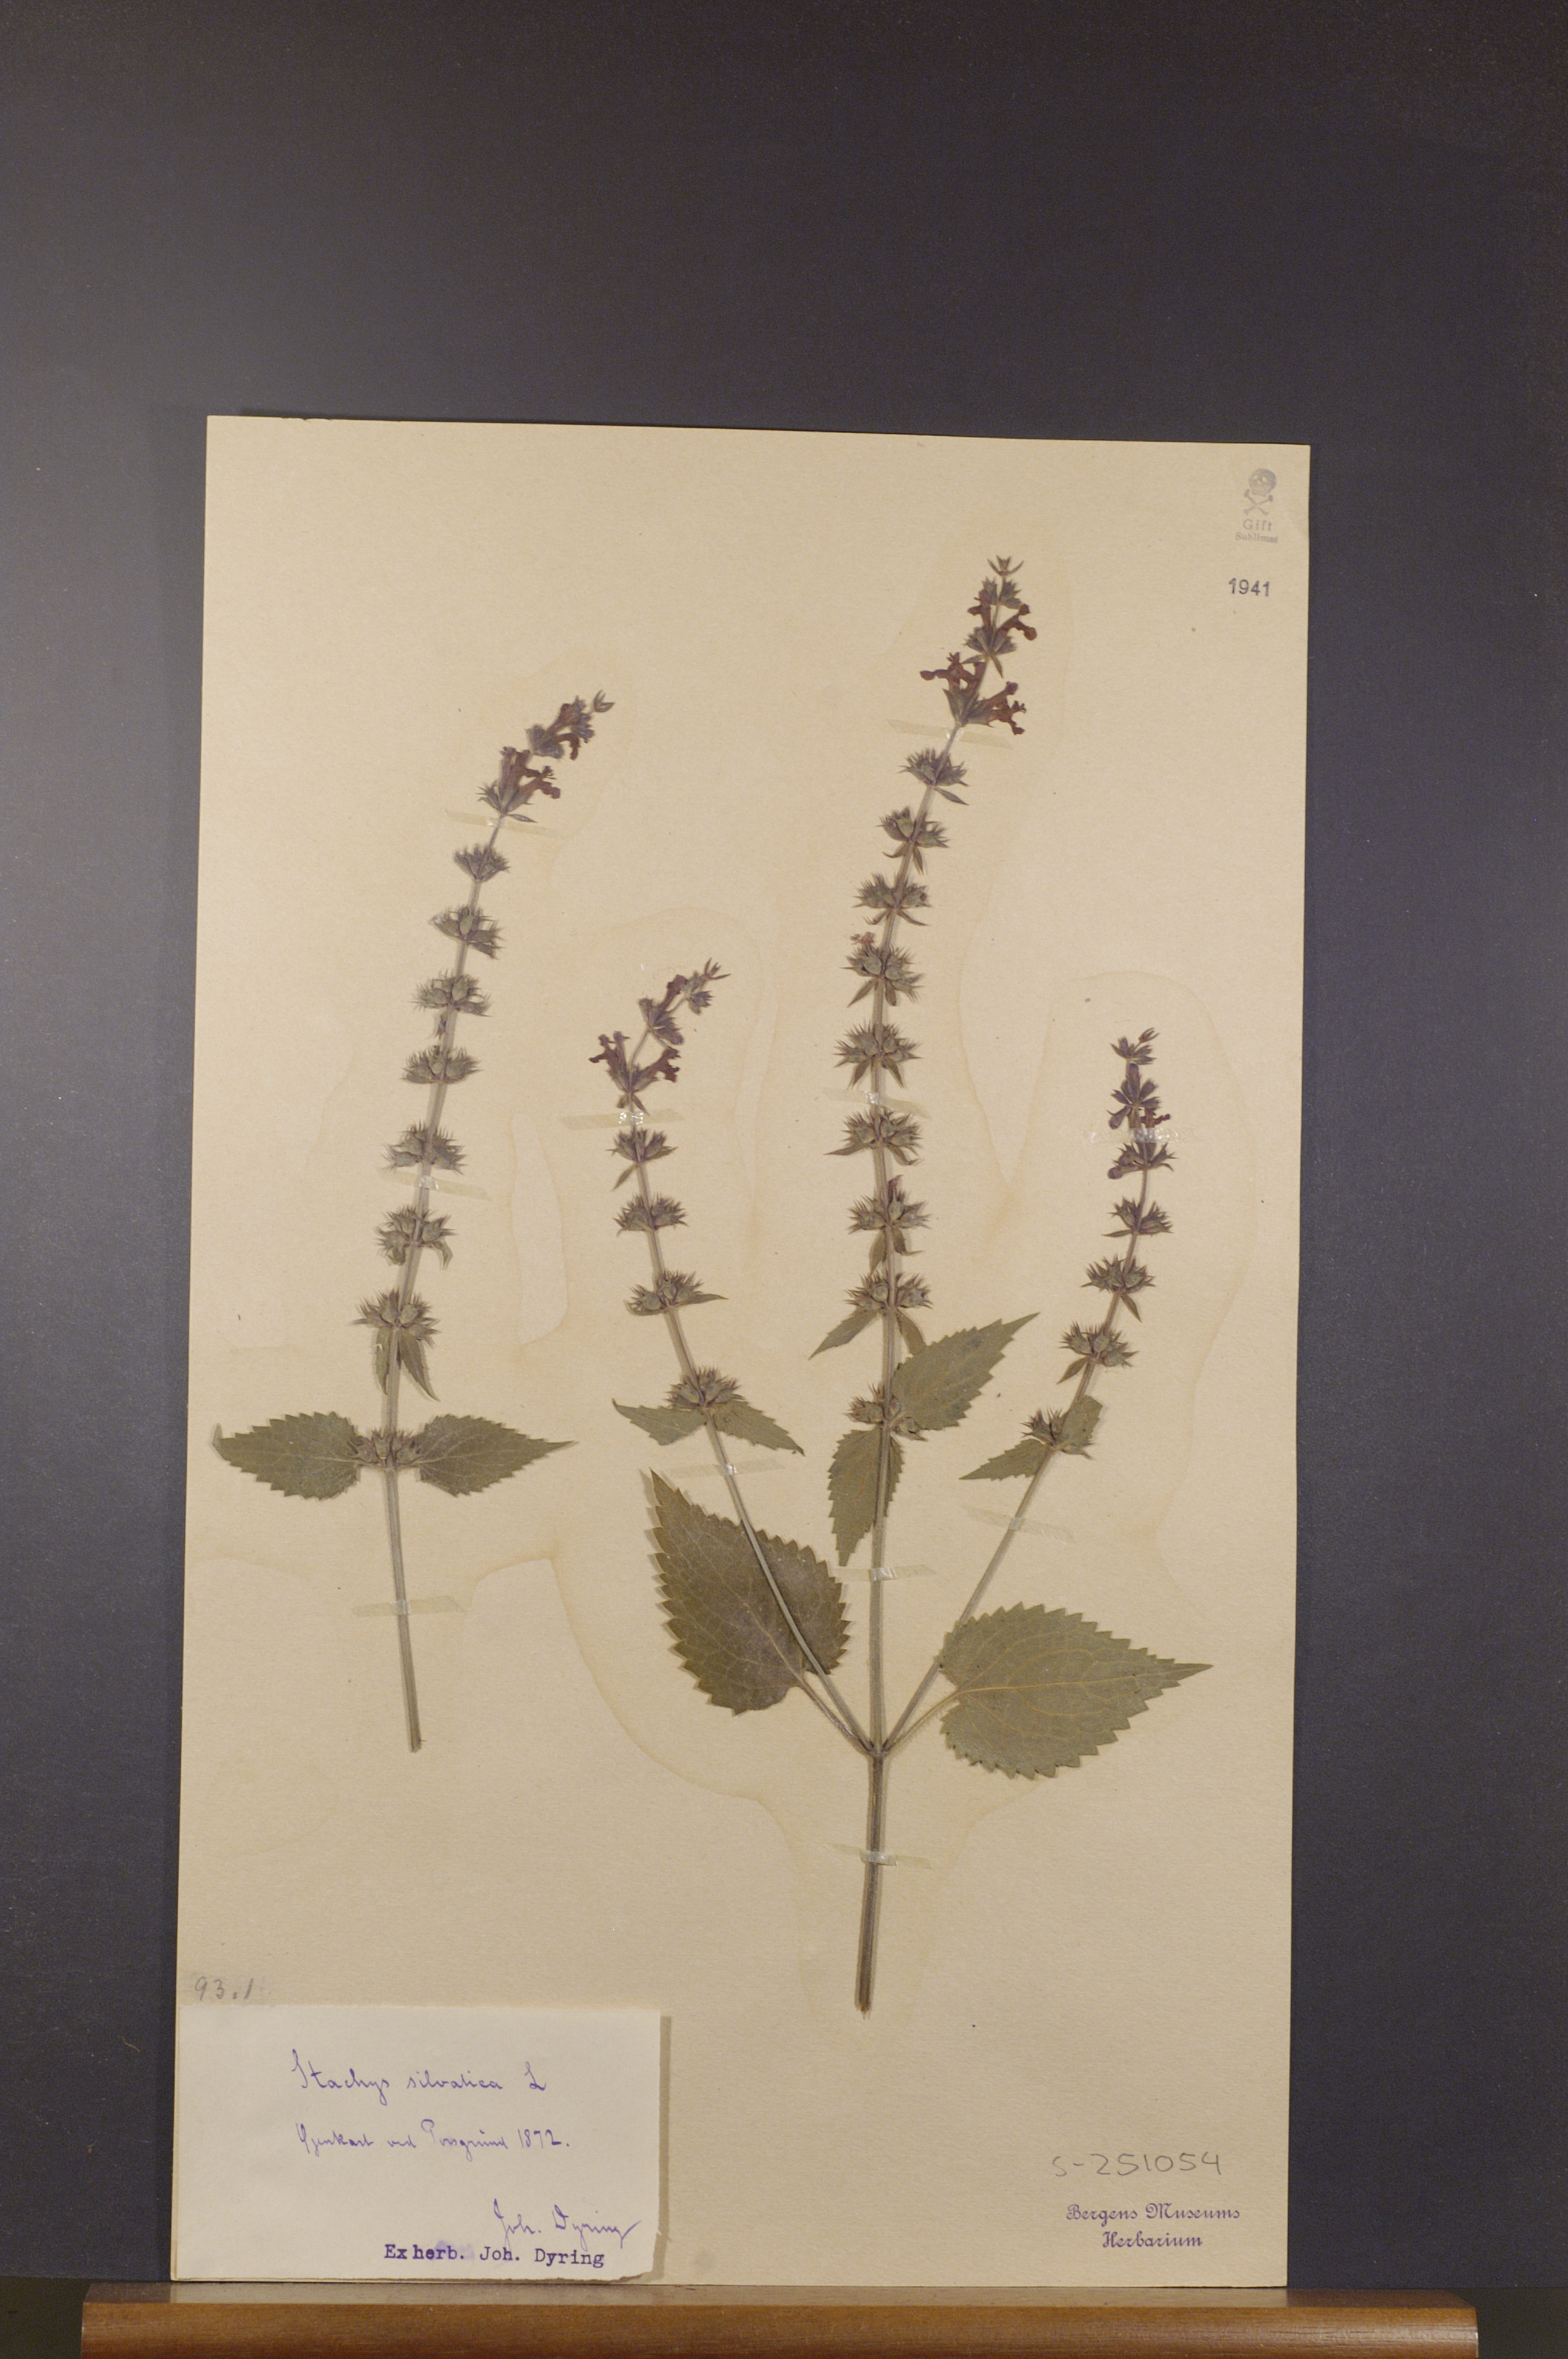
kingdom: Plantae
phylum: Tracheophyta
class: Magnoliopsida
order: Lamiales
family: Lamiaceae
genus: Stachys
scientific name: Stachys sylvatica
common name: Hedge woundwort
